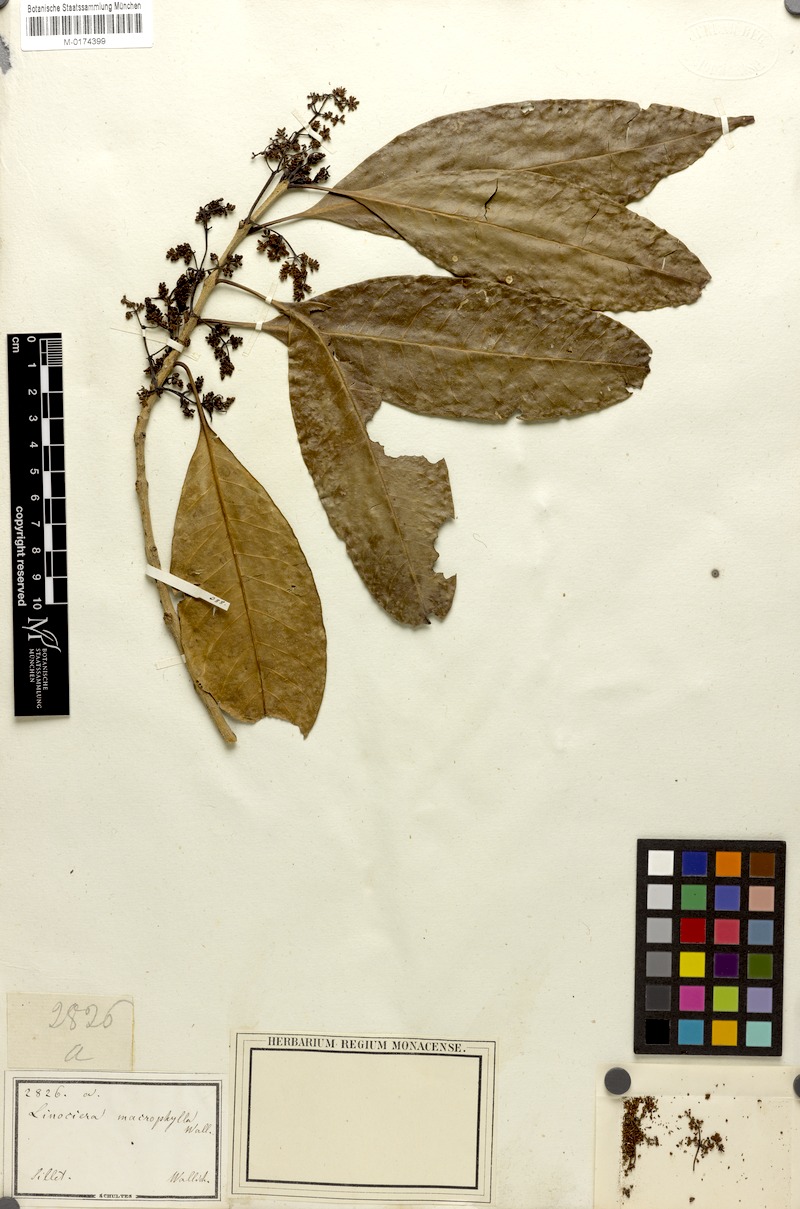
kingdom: Plantae
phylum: Tracheophyta
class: Magnoliopsida
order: Lamiales
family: Oleaceae
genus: Chionanthus
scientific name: Chionanthus ramiflorus
